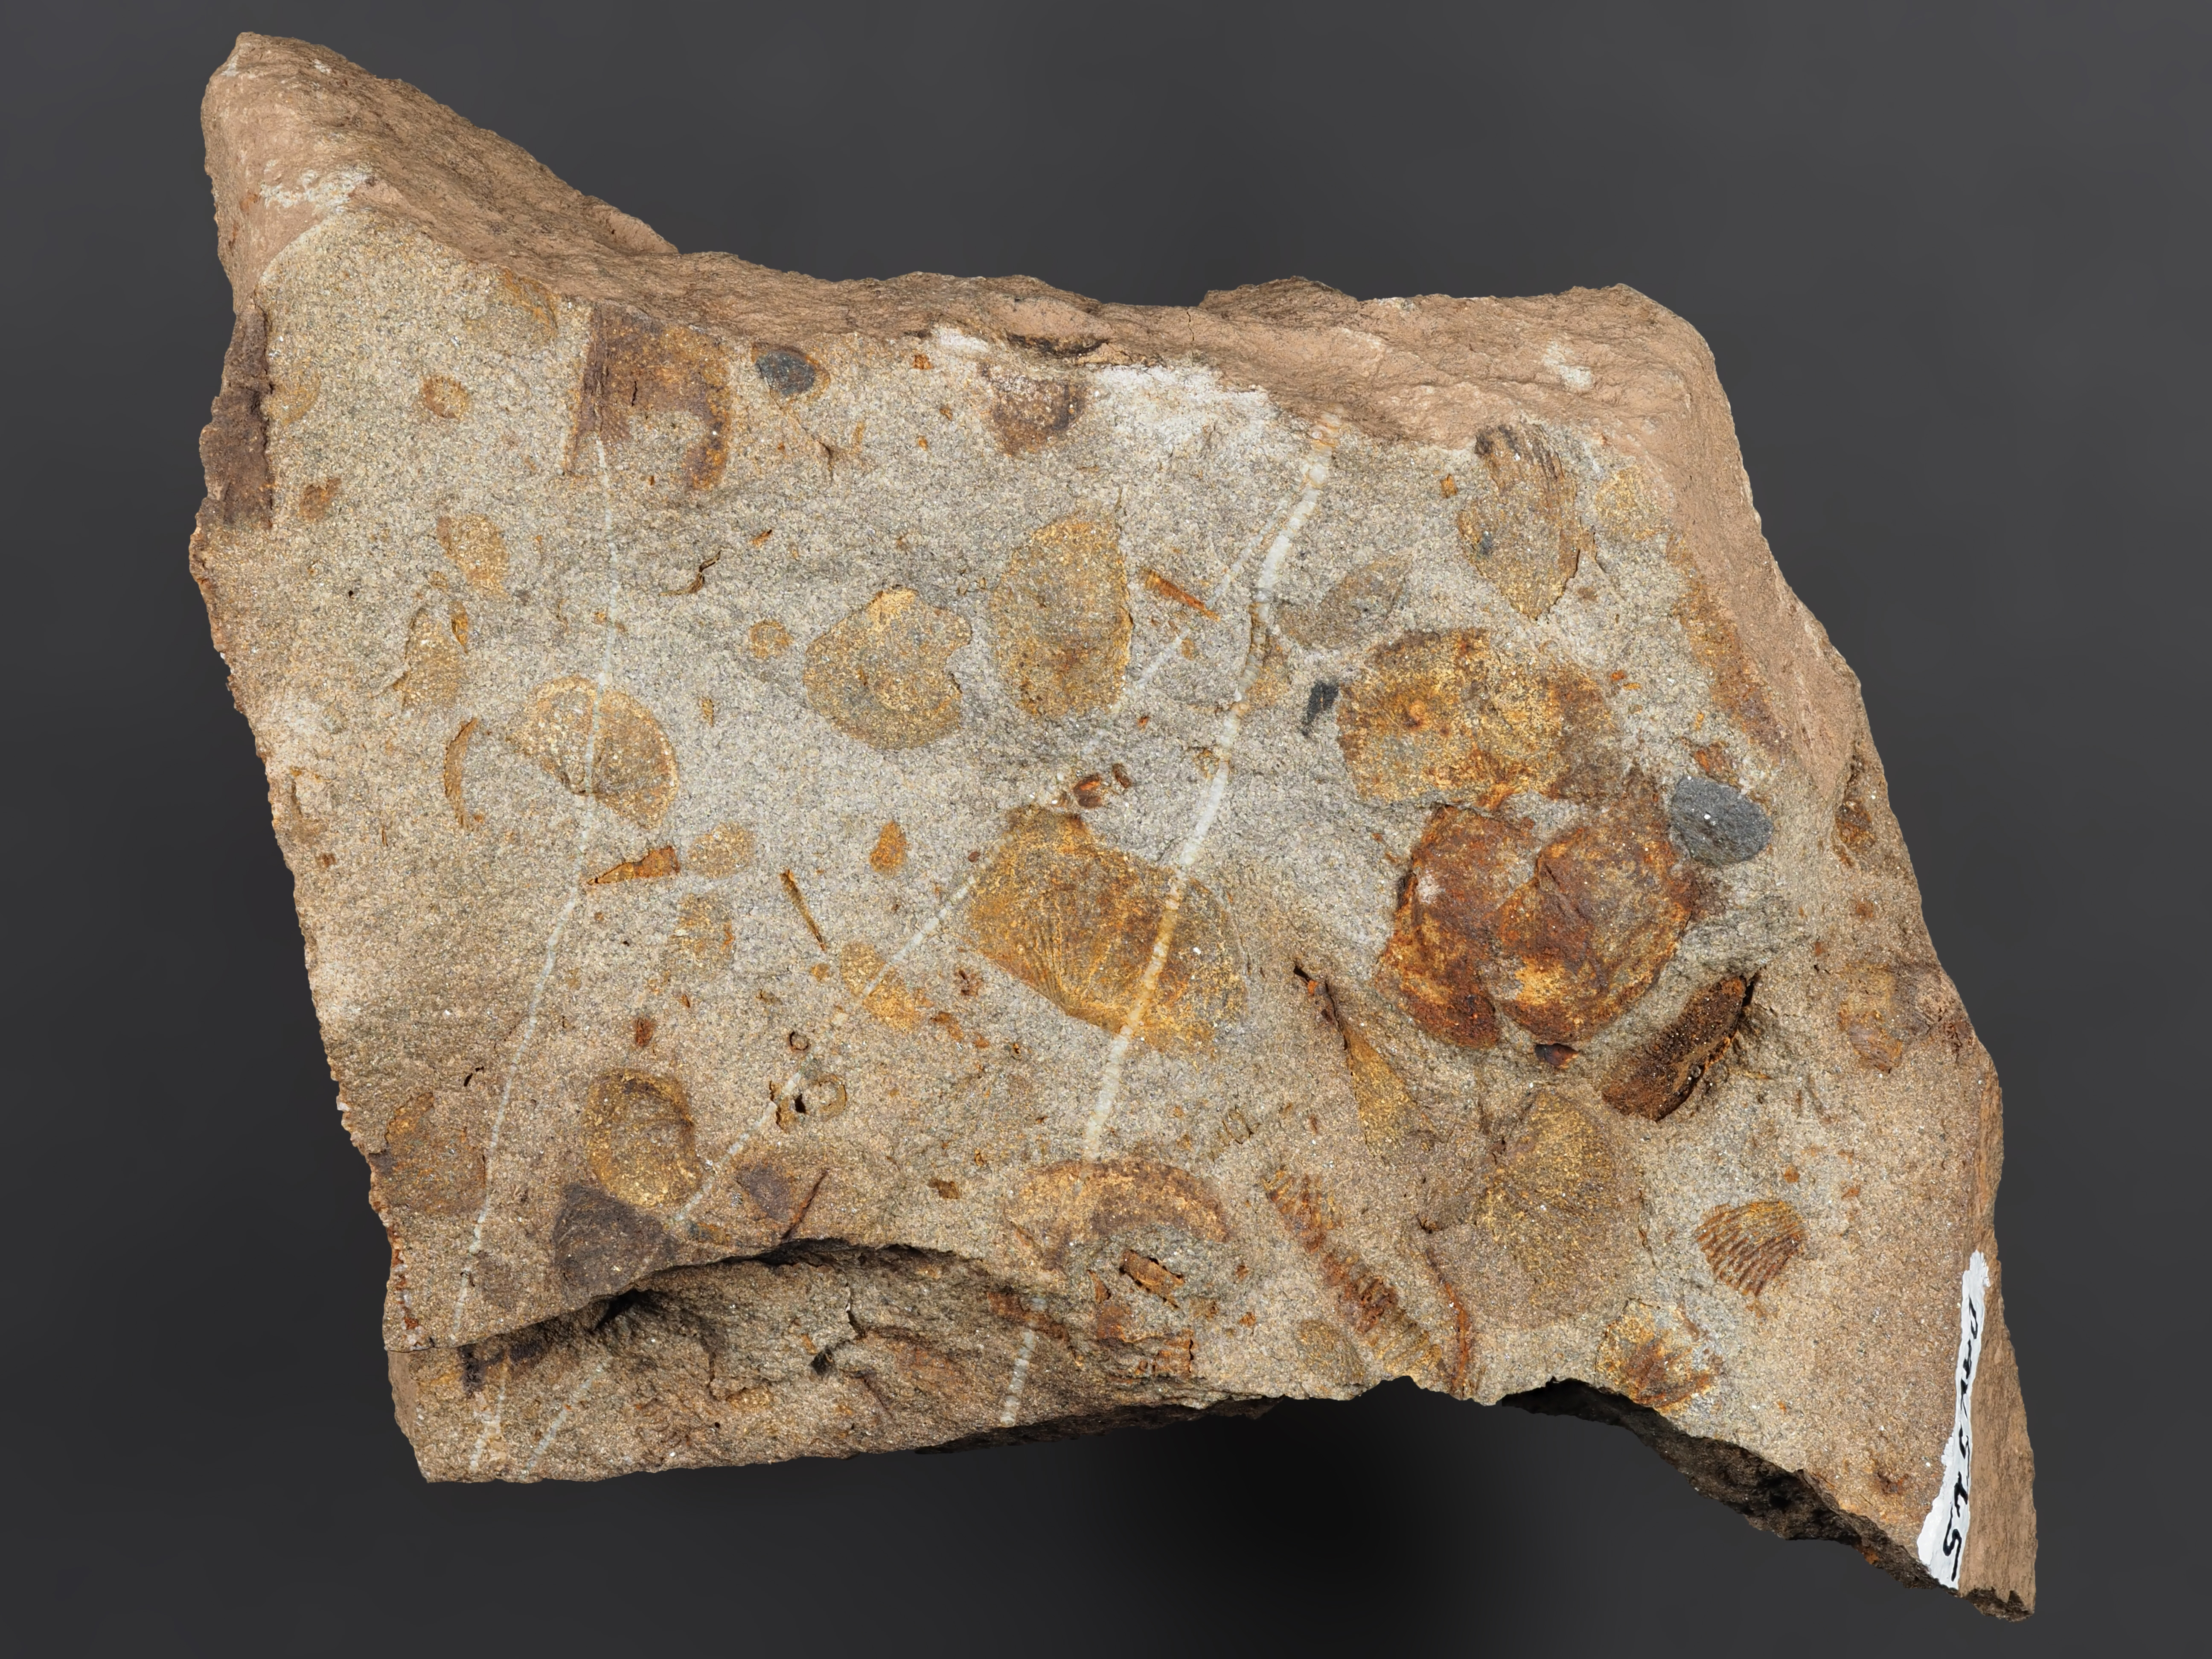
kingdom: Animalia
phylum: Mollusca
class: Bivalvia
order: Ostreida
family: Pterineidae
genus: Leptodesma
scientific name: Leptodesma
